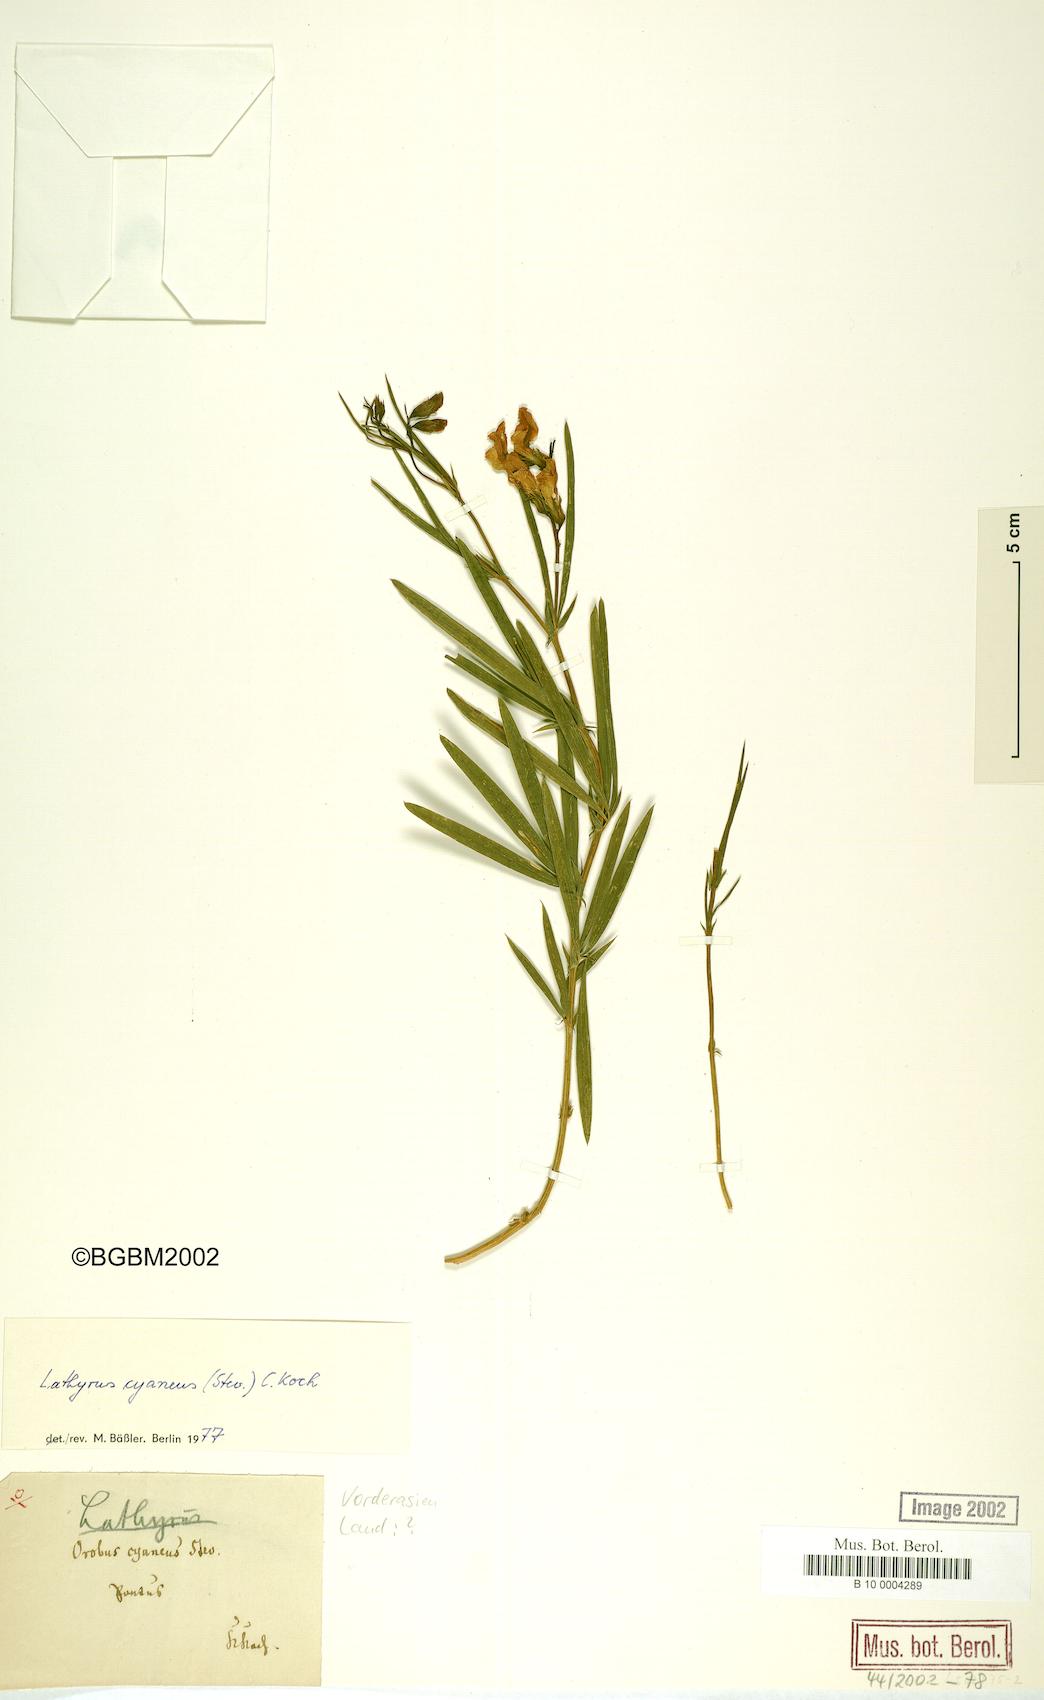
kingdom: Plantae
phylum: Tracheophyta
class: Magnoliopsida
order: Fabales
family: Fabaceae
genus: Lathyrus
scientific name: Lathyrus cyaneus
